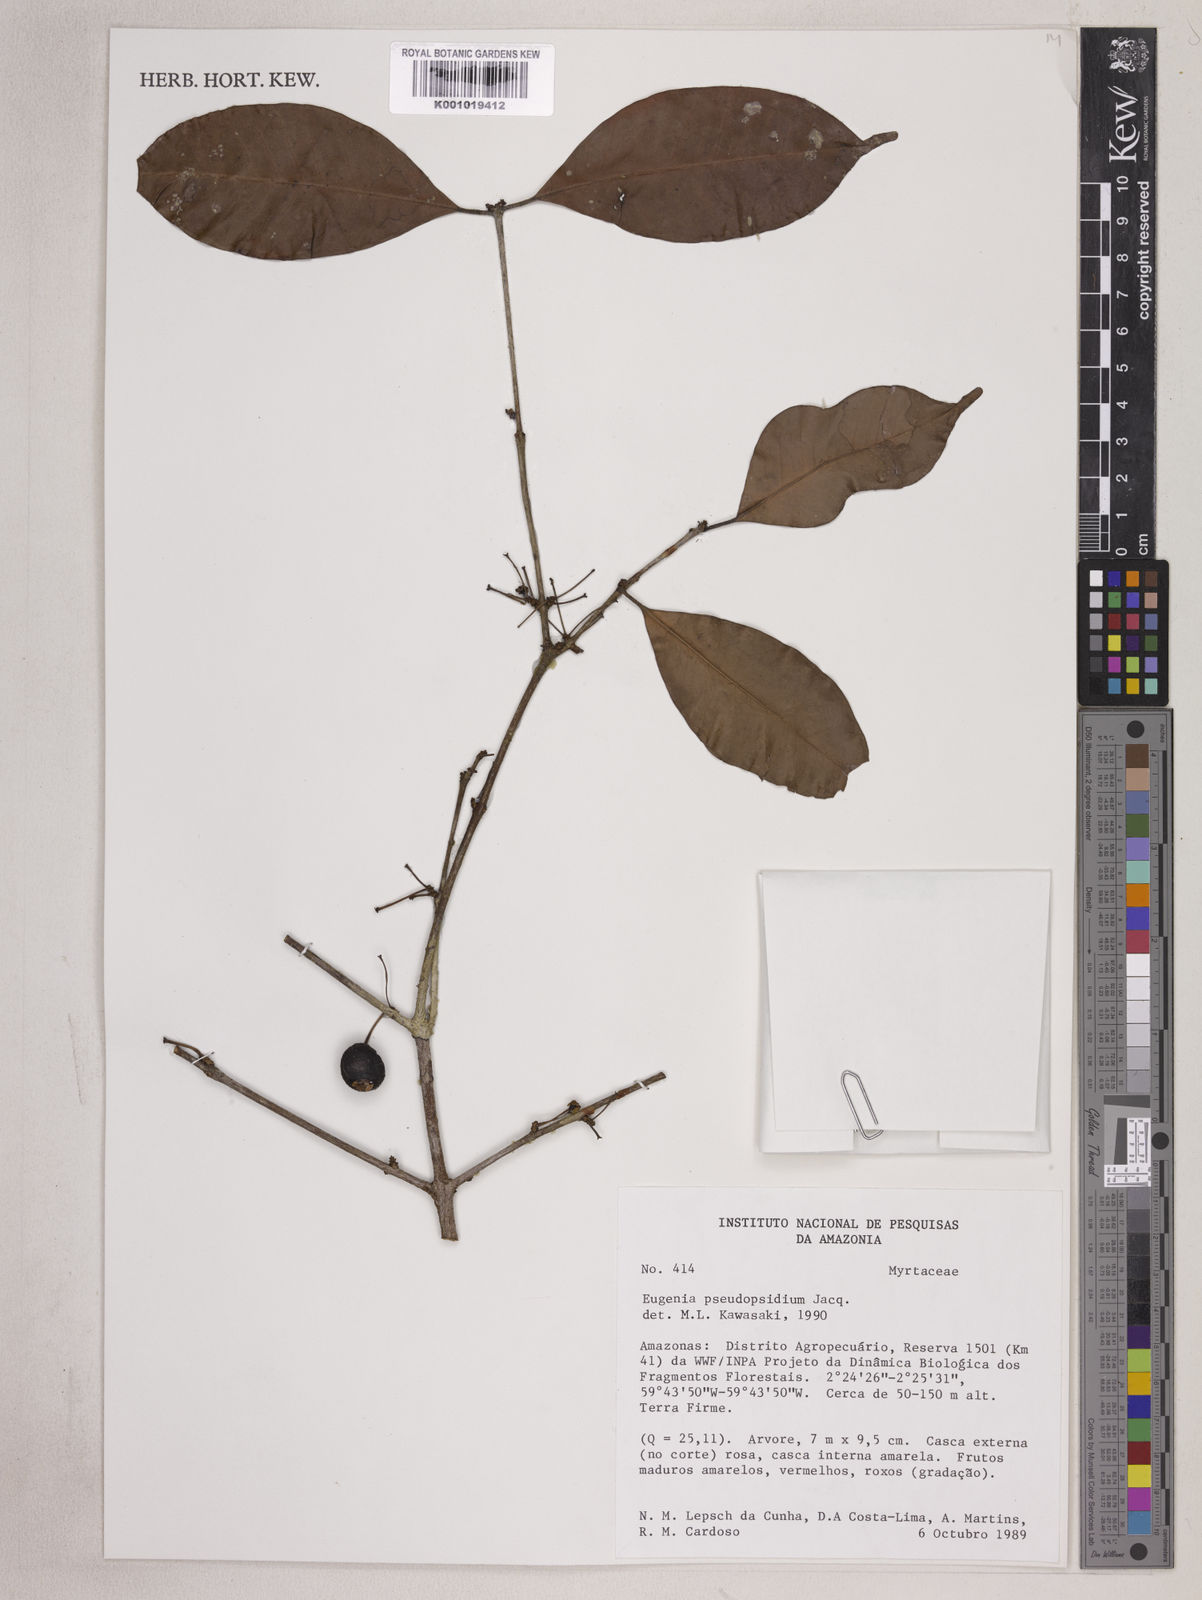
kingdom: Plantae
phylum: Tracheophyta
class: Magnoliopsida
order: Myrtales
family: Myrtaceae
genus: Eugenia
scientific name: Eugenia pseudopsidium
